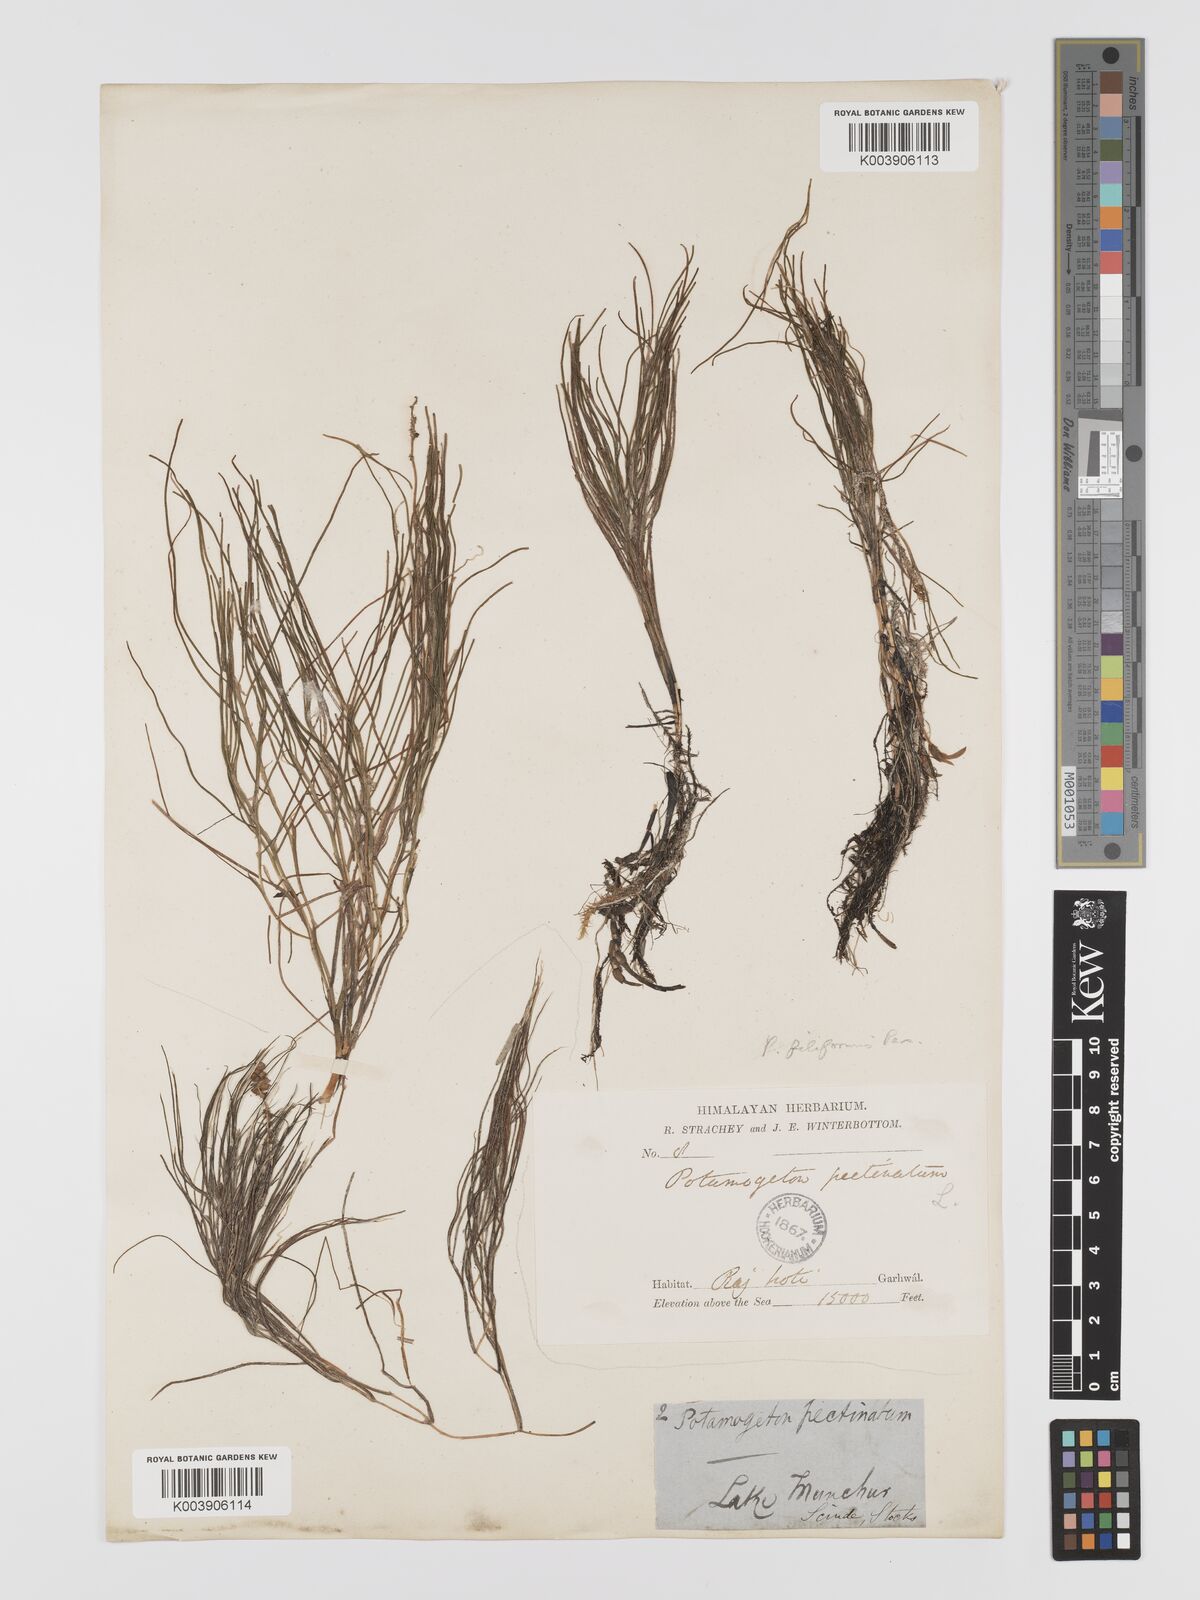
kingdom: Plantae
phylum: Tracheophyta
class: Liliopsida
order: Alismatales
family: Potamogetonaceae
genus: Stuckenia
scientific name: Stuckenia pectinata
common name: Sago pondweed
